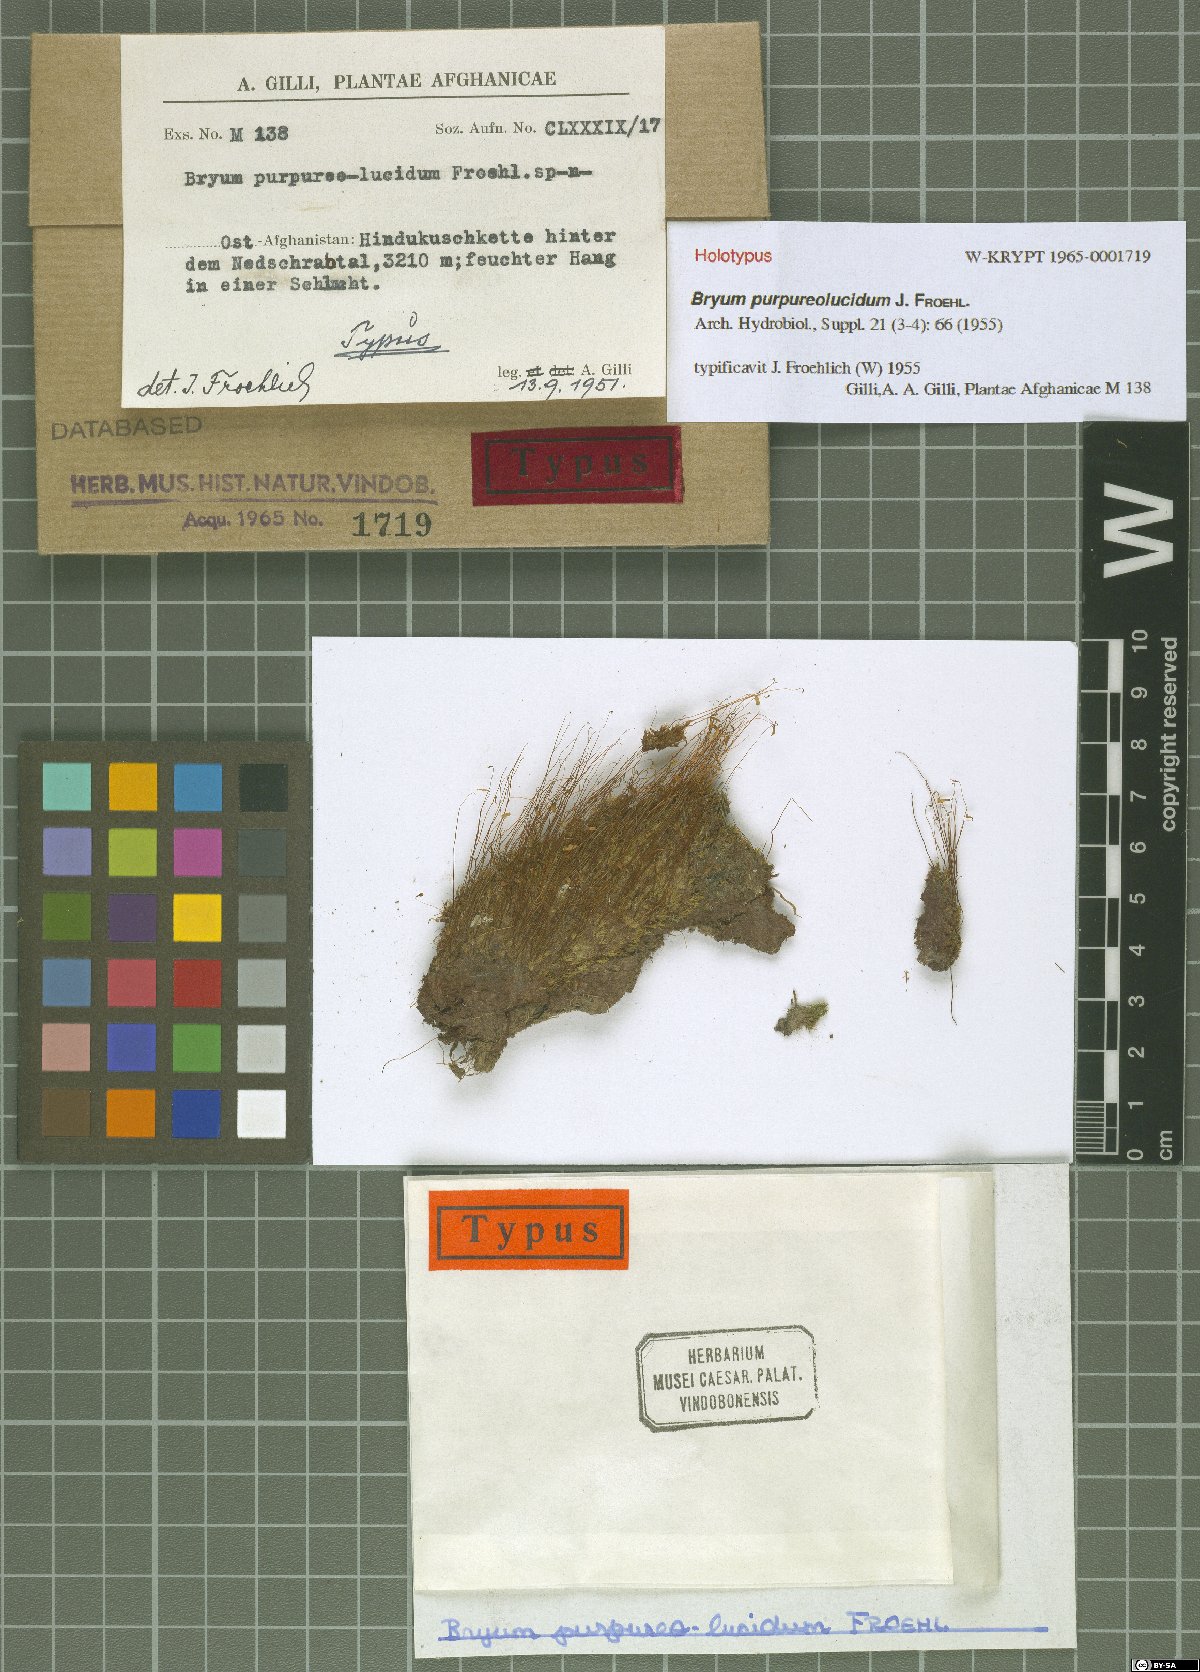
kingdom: Plantae
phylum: Bryophyta
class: Bryopsida
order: Bryales
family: Bryaceae
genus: Bryum
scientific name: Bryum purpureolucidum
